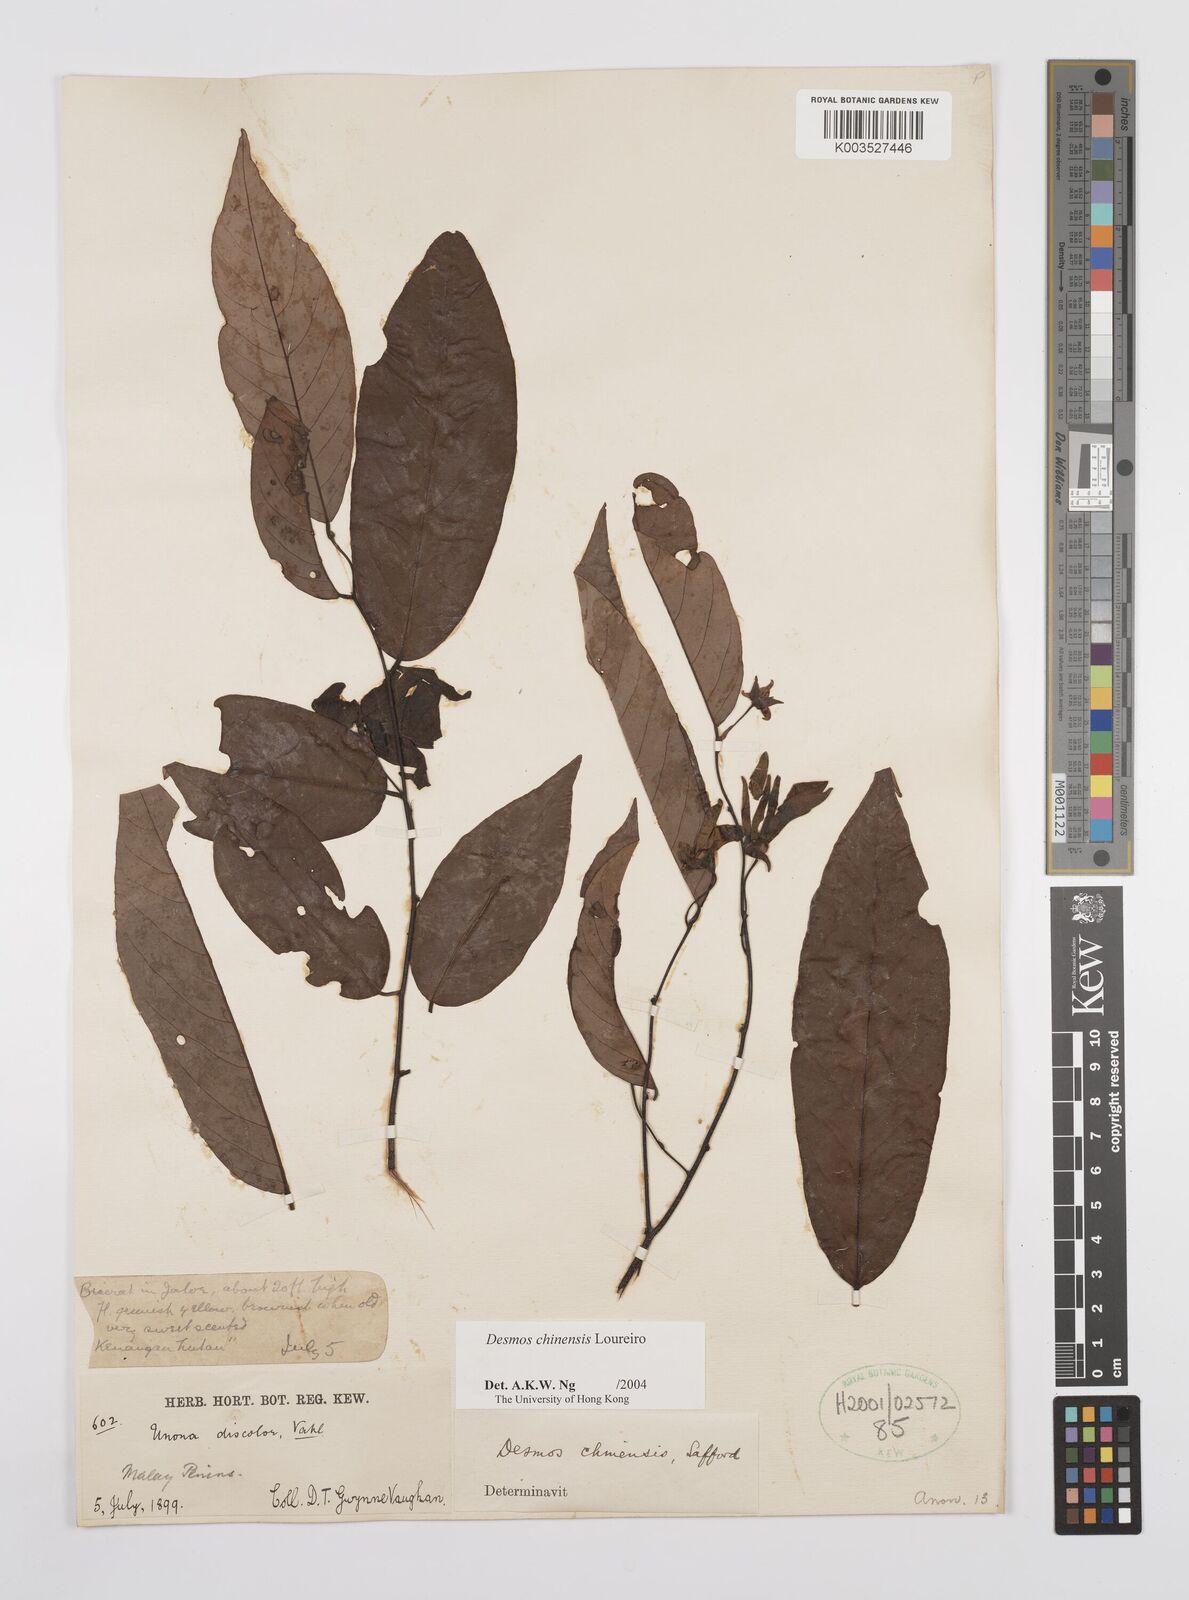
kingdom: Plantae
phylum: Tracheophyta
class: Magnoliopsida
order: Magnoliales
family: Annonaceae
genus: Desmos
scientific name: Desmos
